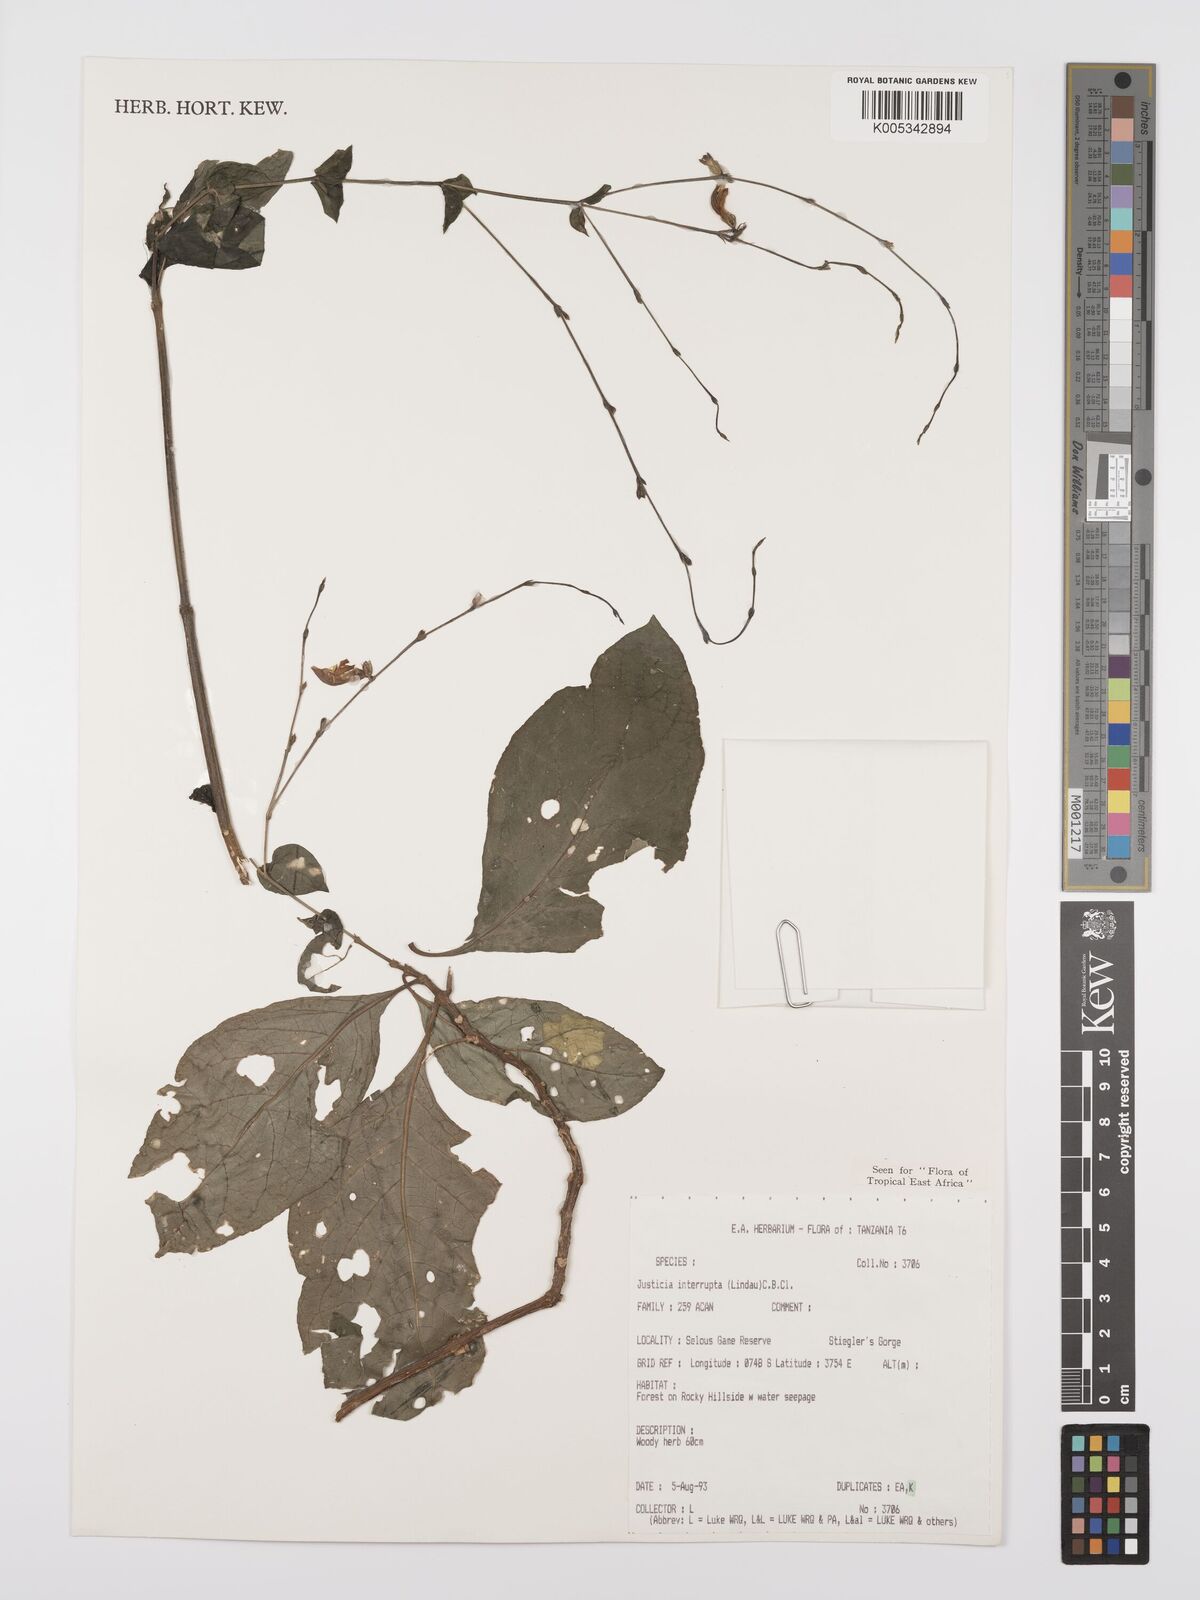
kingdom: Plantae
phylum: Tracheophyta
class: Magnoliopsida
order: Lamiales
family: Acanthaceae
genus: Justicia
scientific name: Justicia plectranthoides
